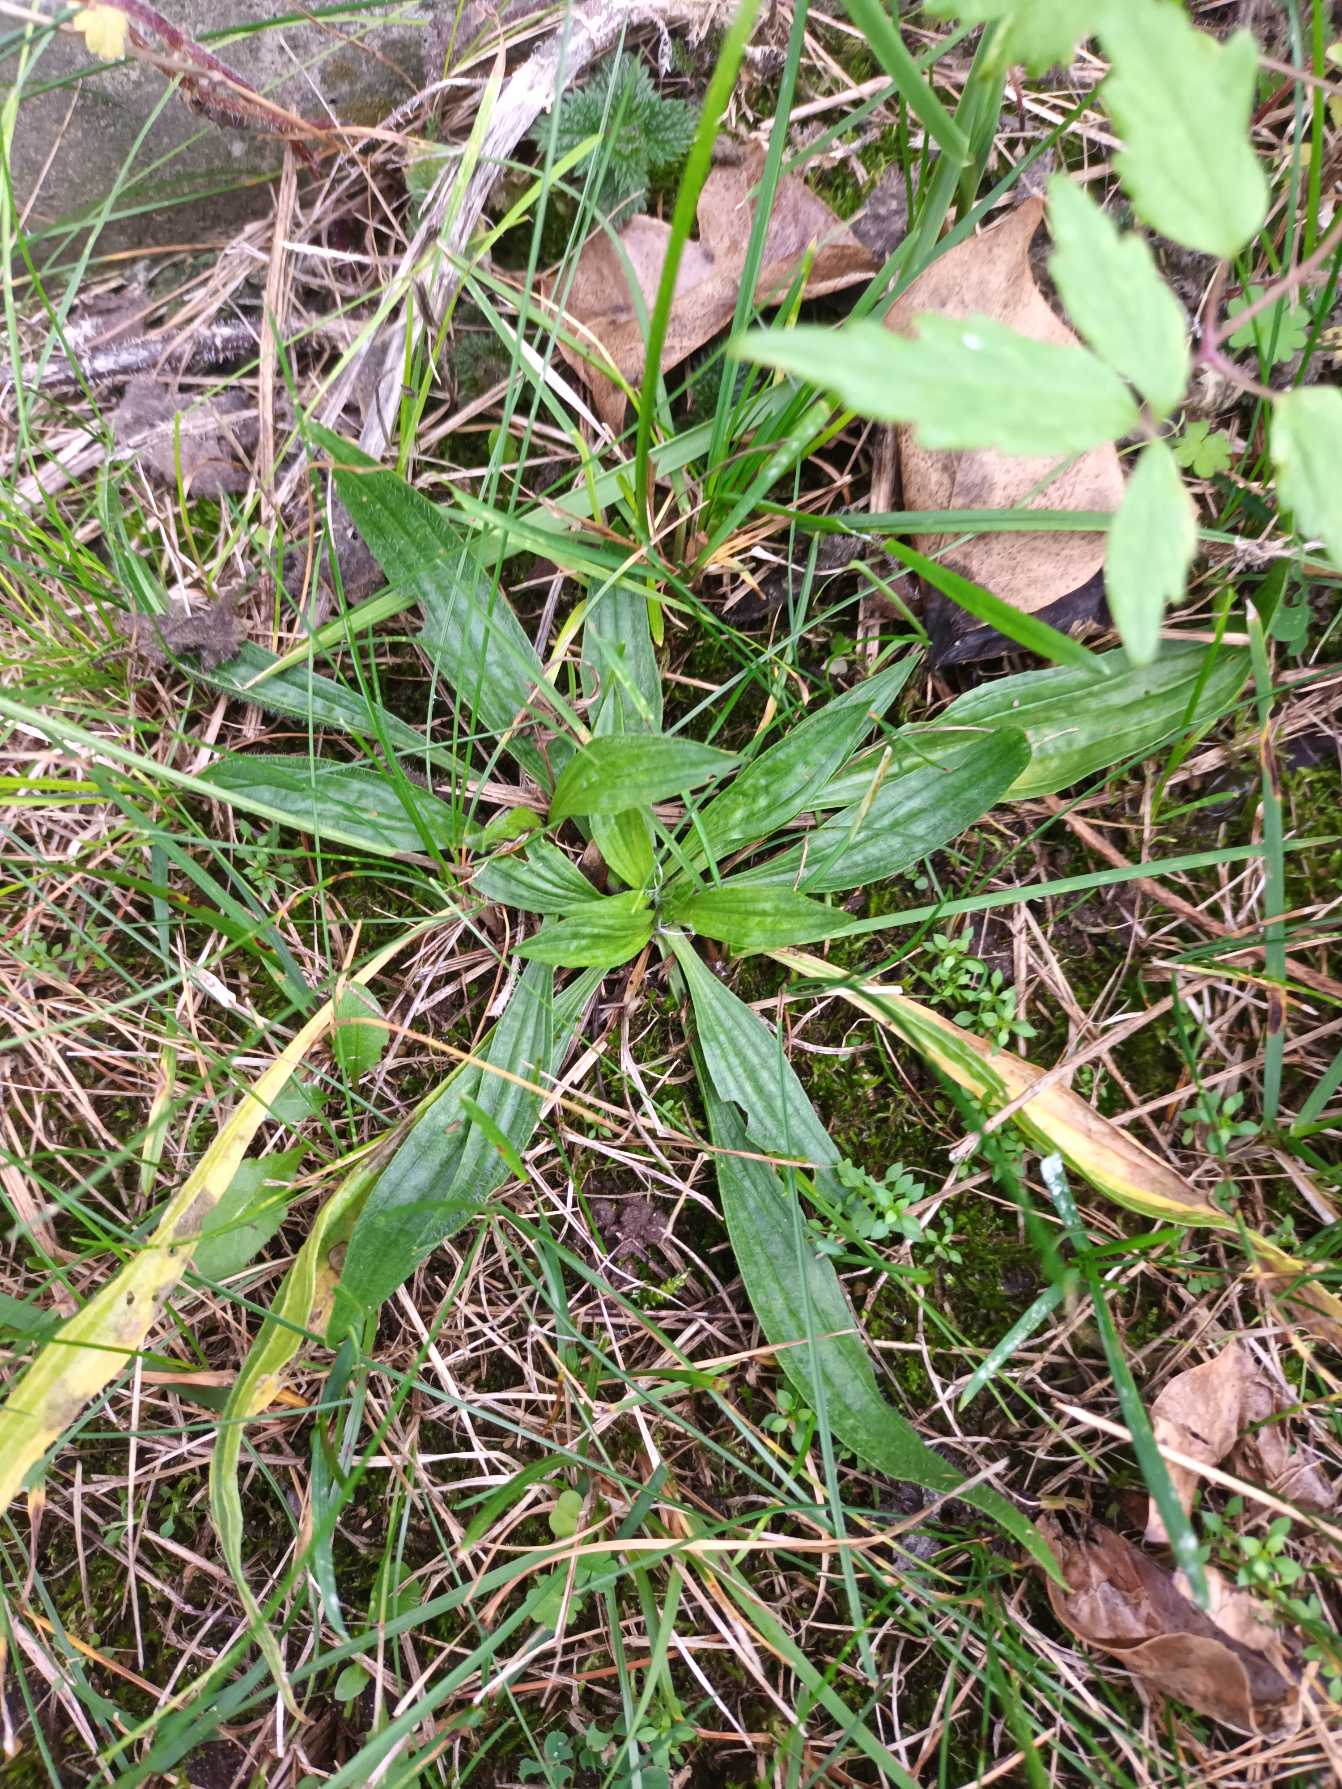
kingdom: Plantae
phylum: Tracheophyta
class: Magnoliopsida
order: Lamiales
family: Plantaginaceae
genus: Plantago
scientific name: Plantago lanceolata
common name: Lancet-vejbred
